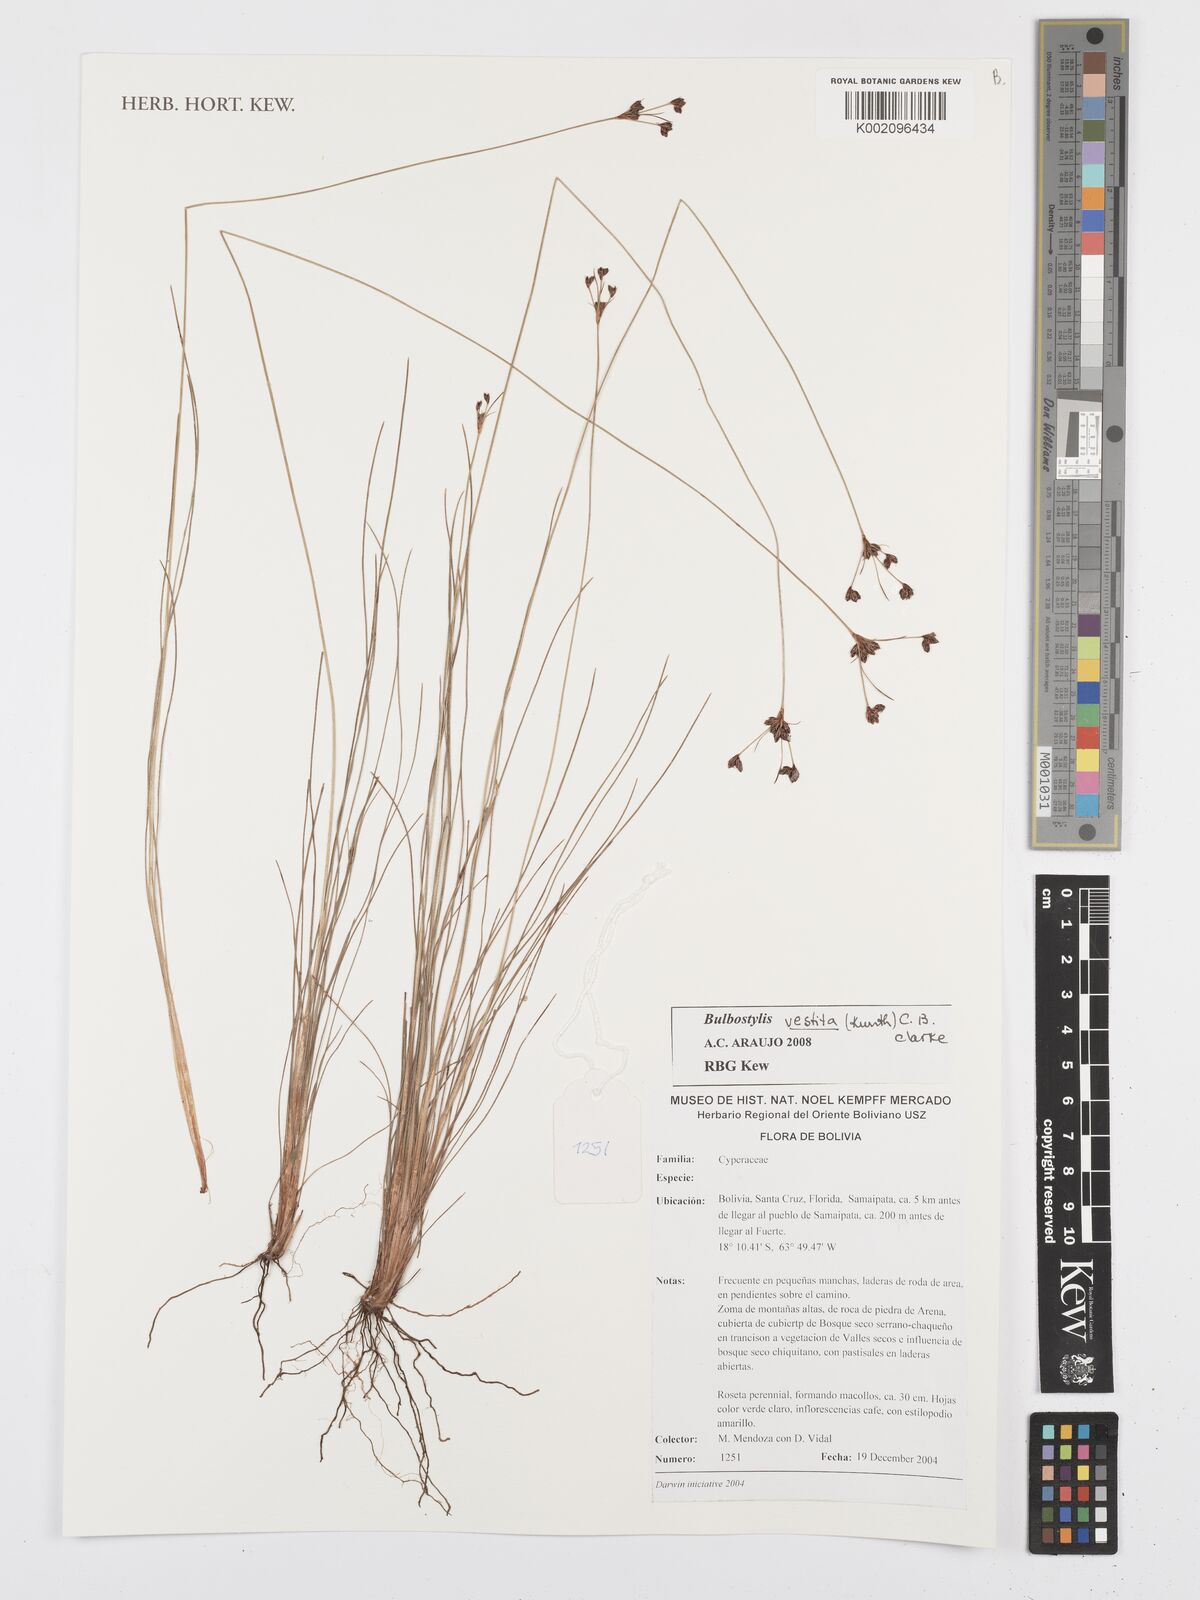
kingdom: Plantae
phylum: Tracheophyta
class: Liliopsida
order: Poales
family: Cyperaceae
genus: Bulbostylis
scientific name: Bulbostylis consanguinea
